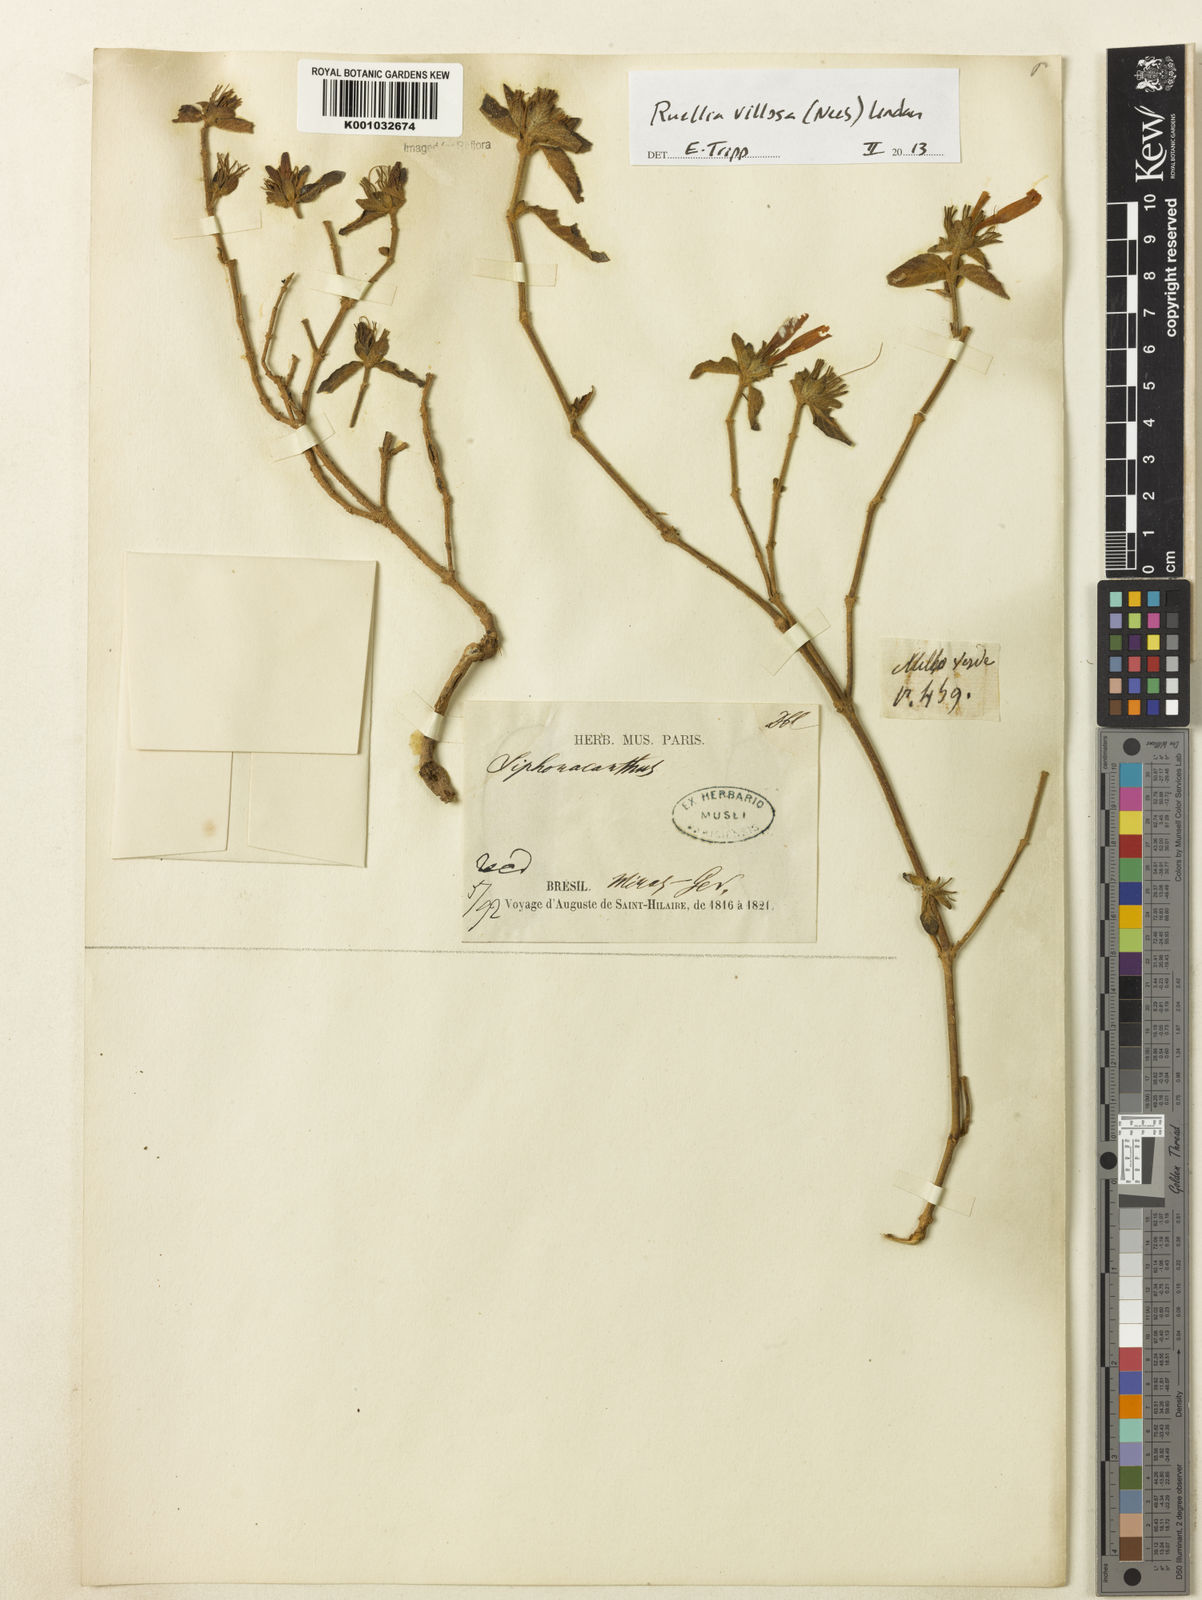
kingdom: Plantae
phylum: Tracheophyta
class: Magnoliopsida
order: Lamiales
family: Acanthaceae
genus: Ruellia
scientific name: Ruellia villosa
